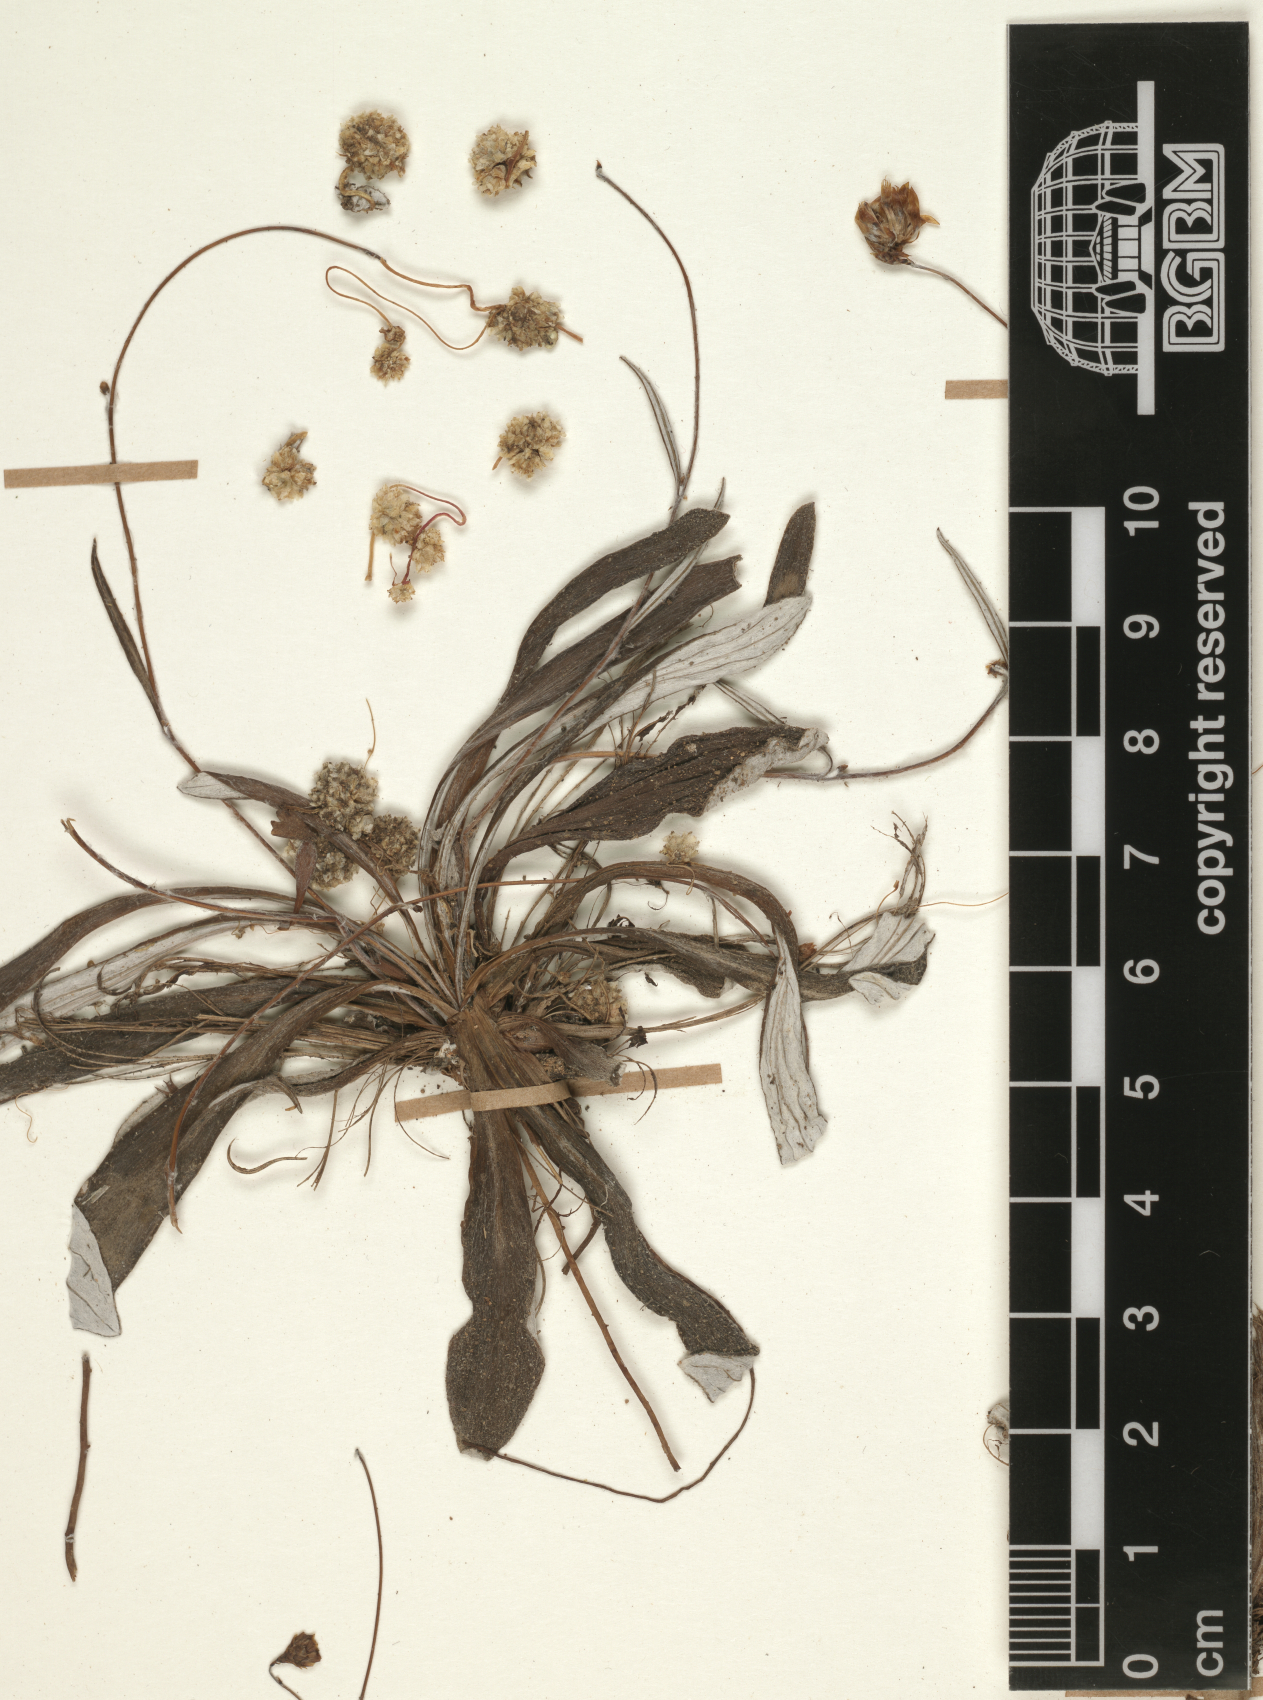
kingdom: Plantae
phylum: Tracheophyta
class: Magnoliopsida
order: Asterales
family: Asteraceae
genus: Helichrysum
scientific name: Helichrysum
